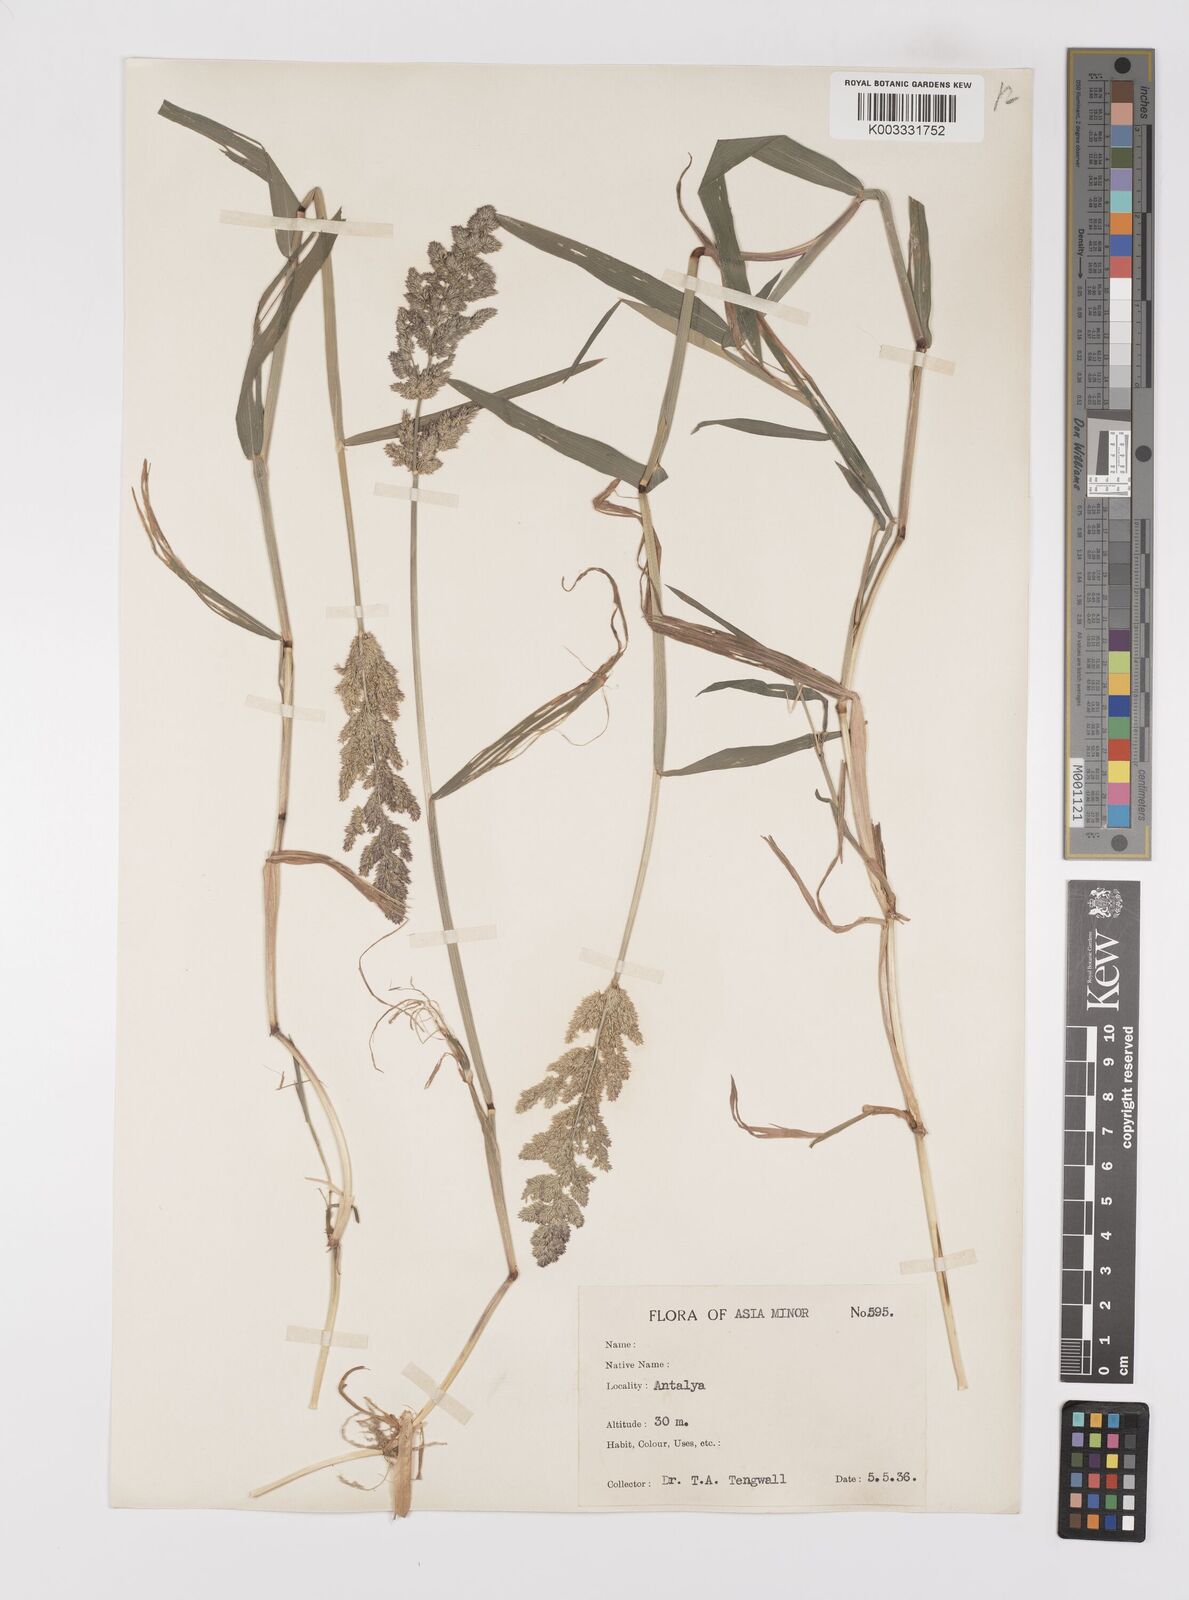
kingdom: Plantae
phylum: Tracheophyta
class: Liliopsida
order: Poales
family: Poaceae
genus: Polypogon
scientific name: Polypogon viridis
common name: Water bent
